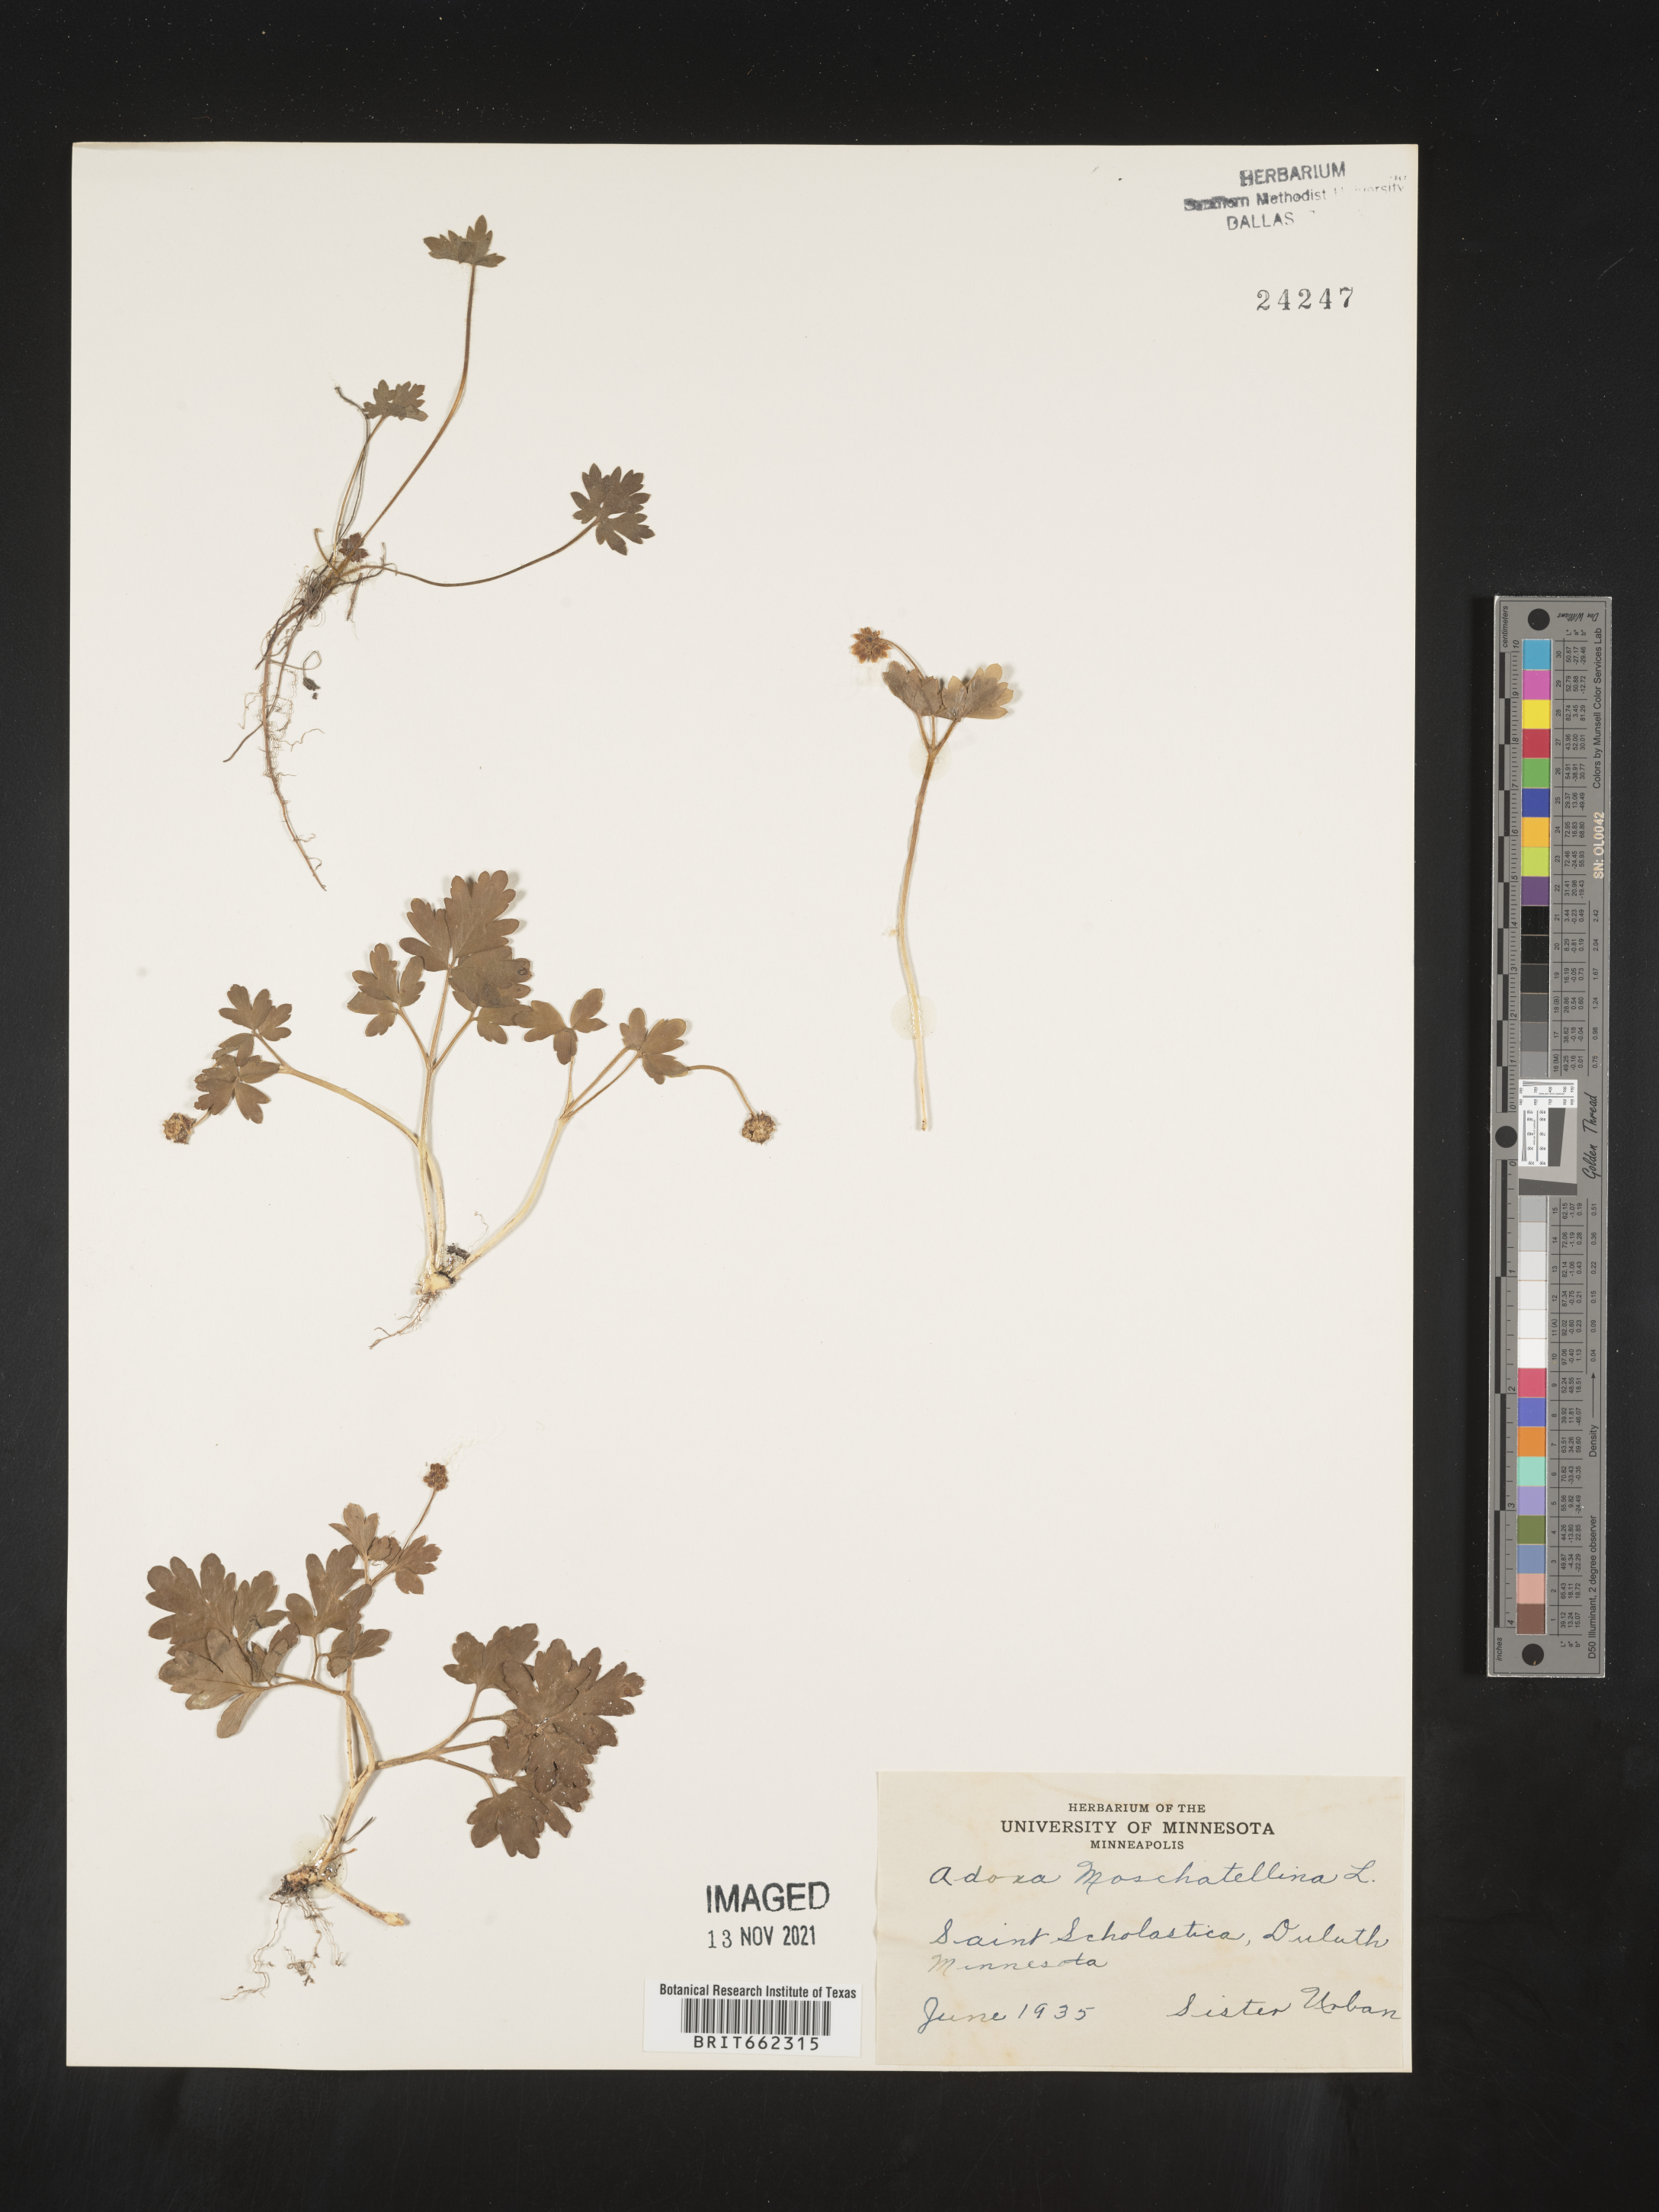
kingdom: Plantae
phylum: Tracheophyta
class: Magnoliopsida
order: Dipsacales
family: Viburnaceae
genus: Adoxa
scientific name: Adoxa
